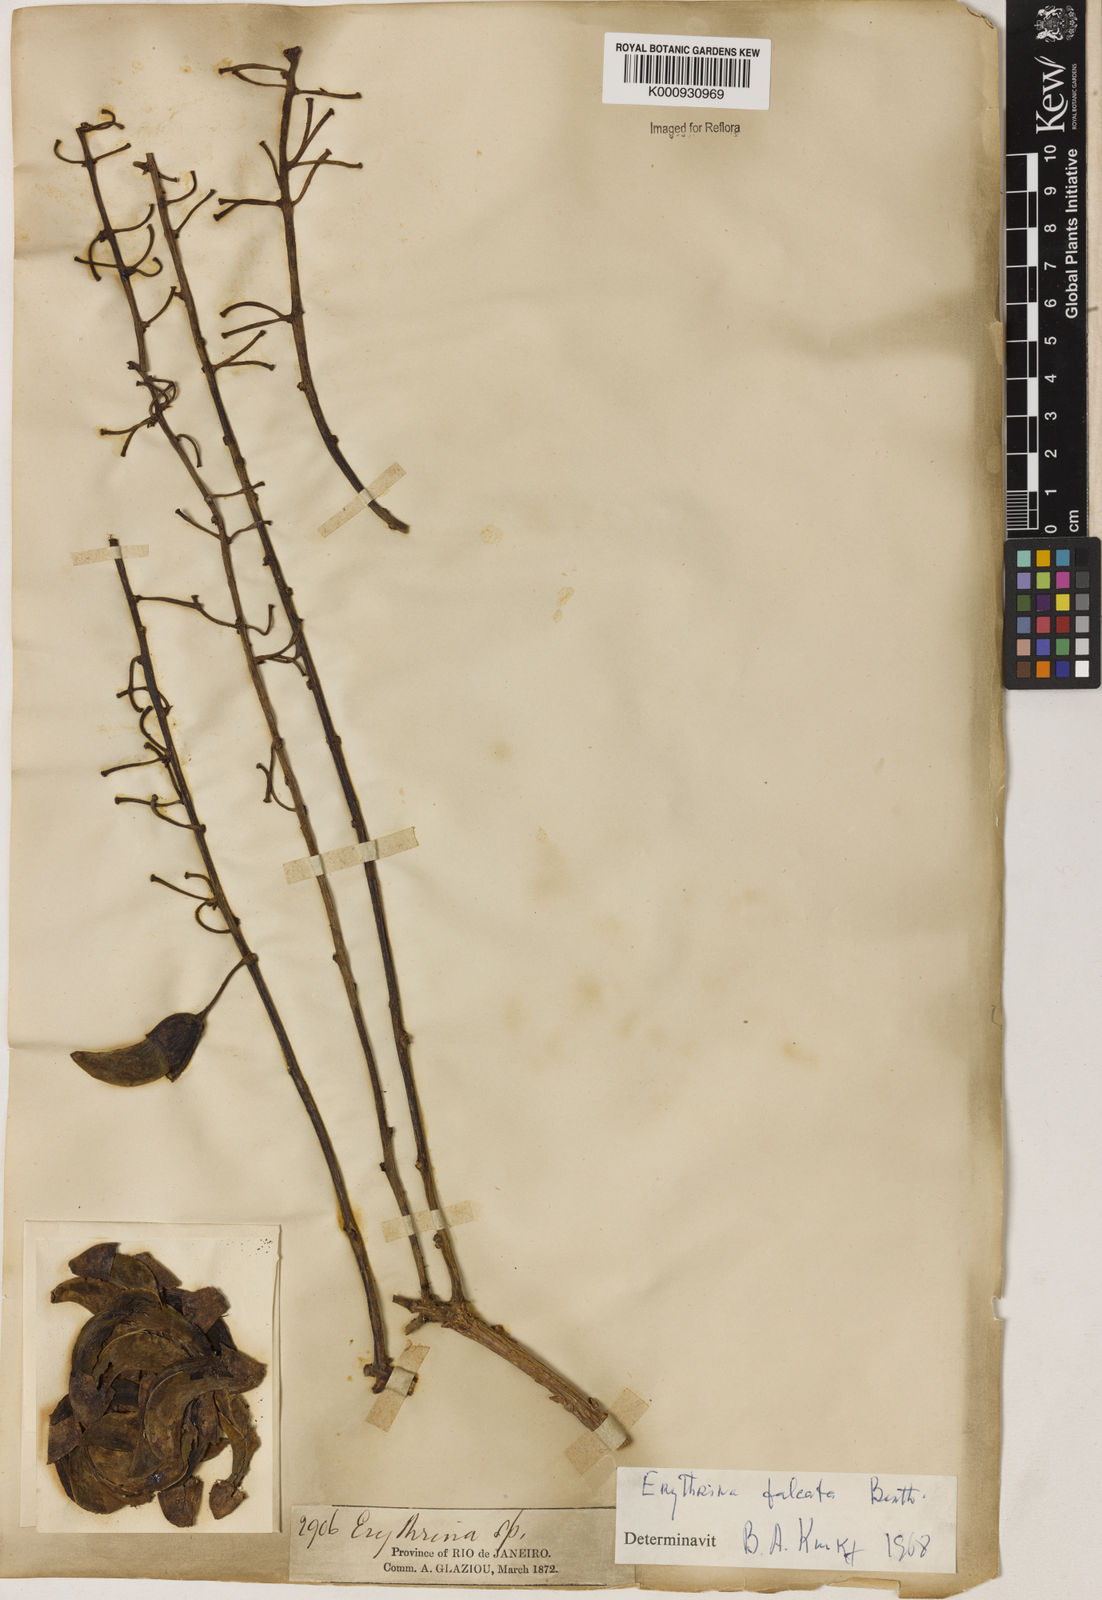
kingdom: Plantae
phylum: Tracheophyta
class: Magnoliopsida
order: Fabales
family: Fabaceae
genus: Erythrina
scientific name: Erythrina falcata
